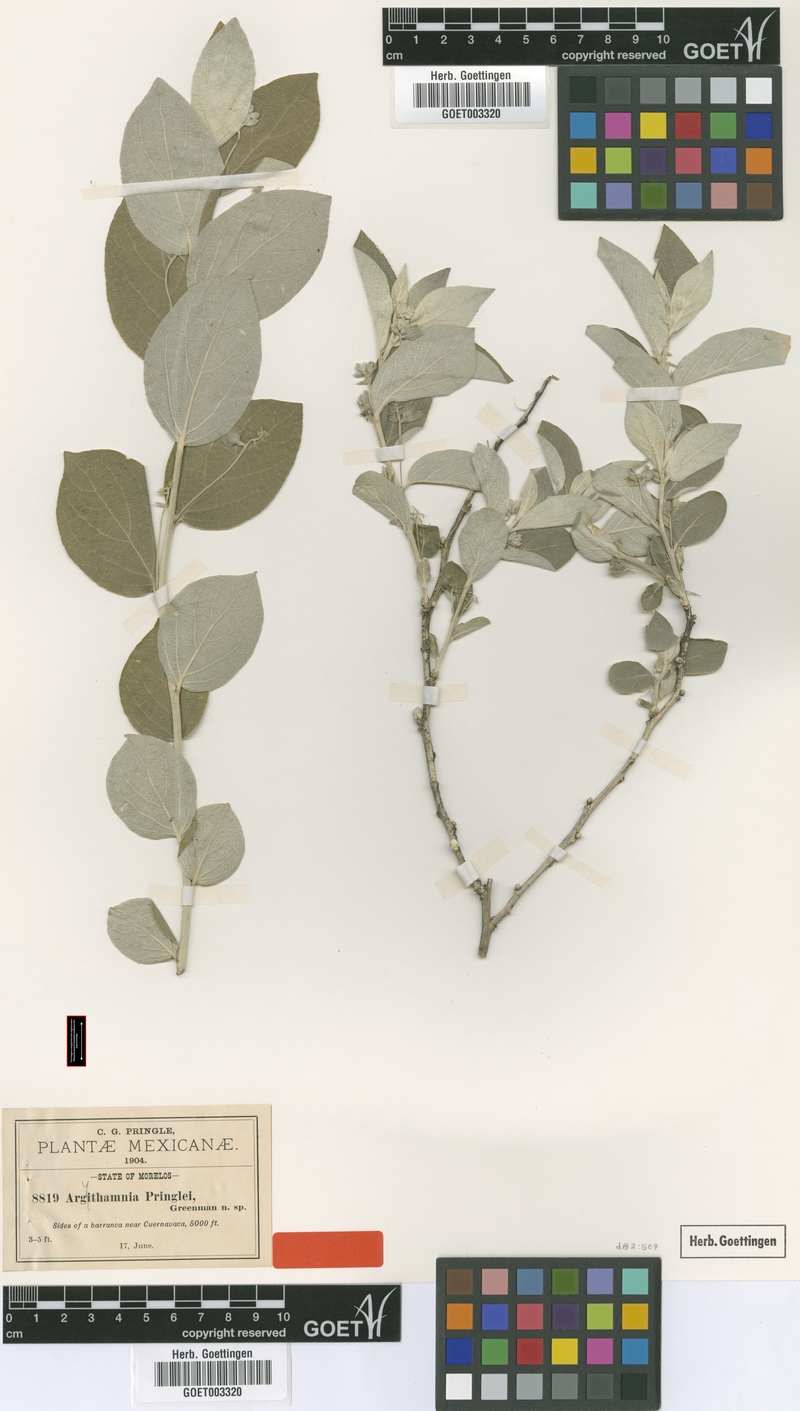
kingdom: Plantae
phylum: Tracheophyta
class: Magnoliopsida
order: Malpighiales
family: Euphorbiaceae
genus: Ditaxis
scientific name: Ditaxis pringlei
